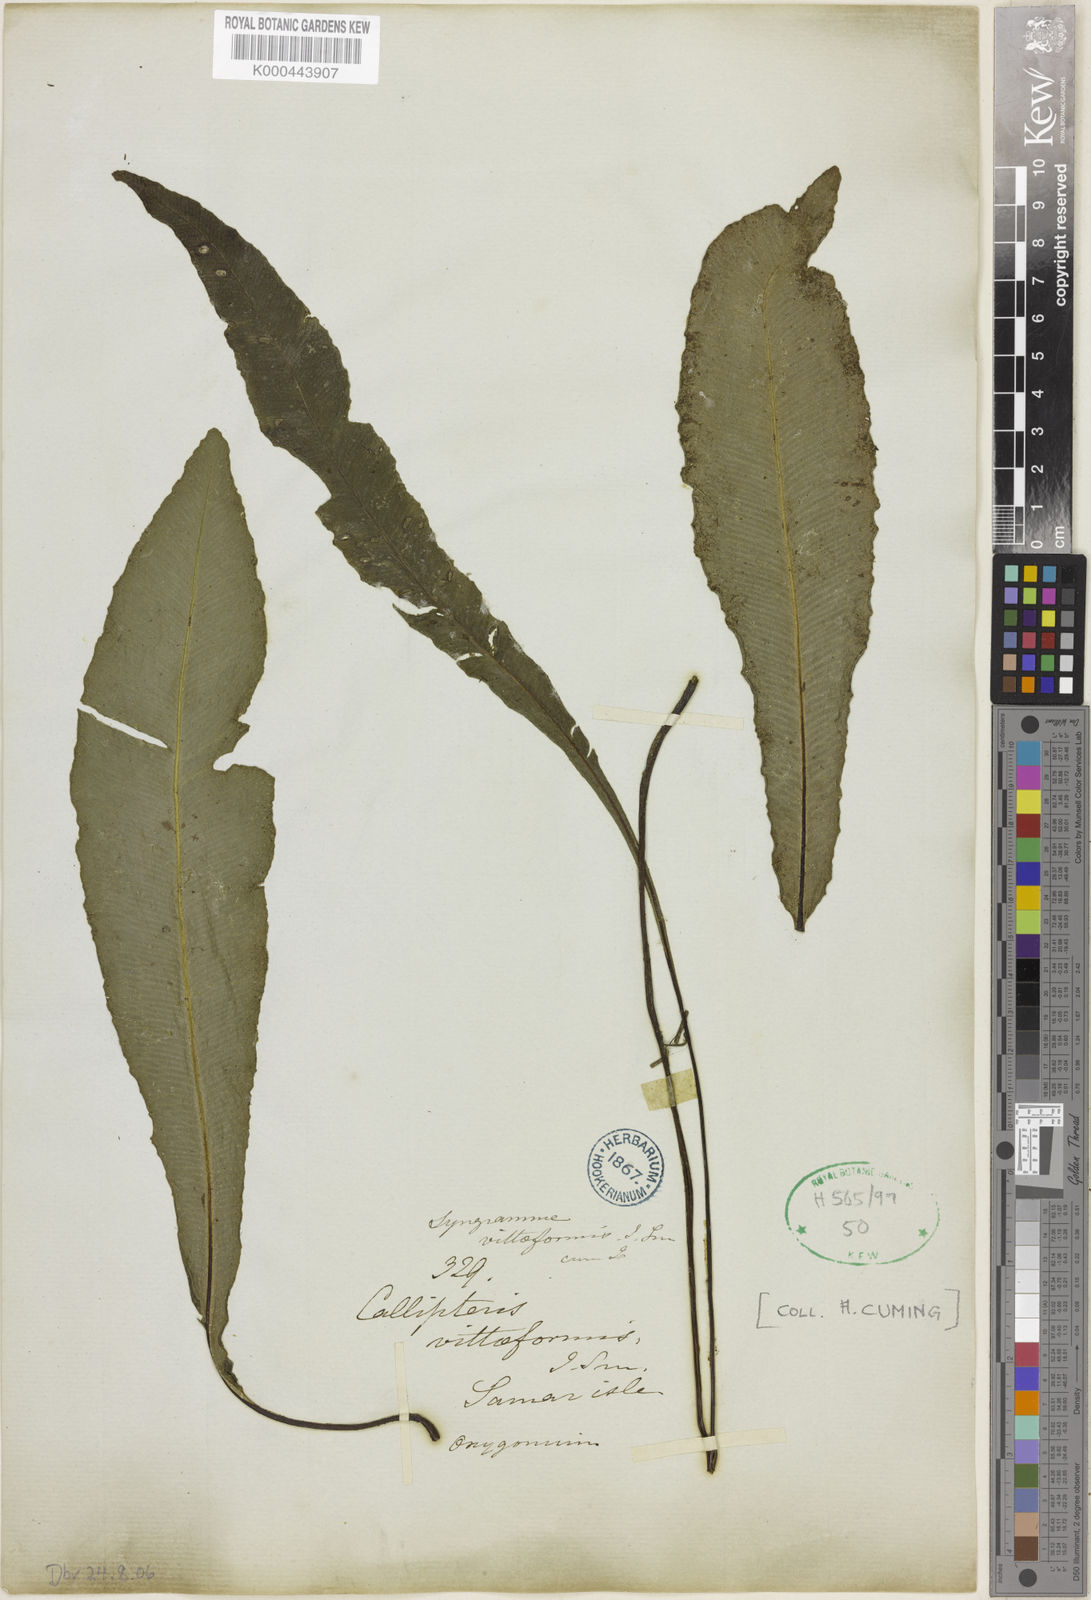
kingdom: Plantae
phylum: Tracheophyta
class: Polypodiopsida
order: Polypodiales
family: Pteridaceae
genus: Syngramma
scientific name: Syngramma vittiformis
